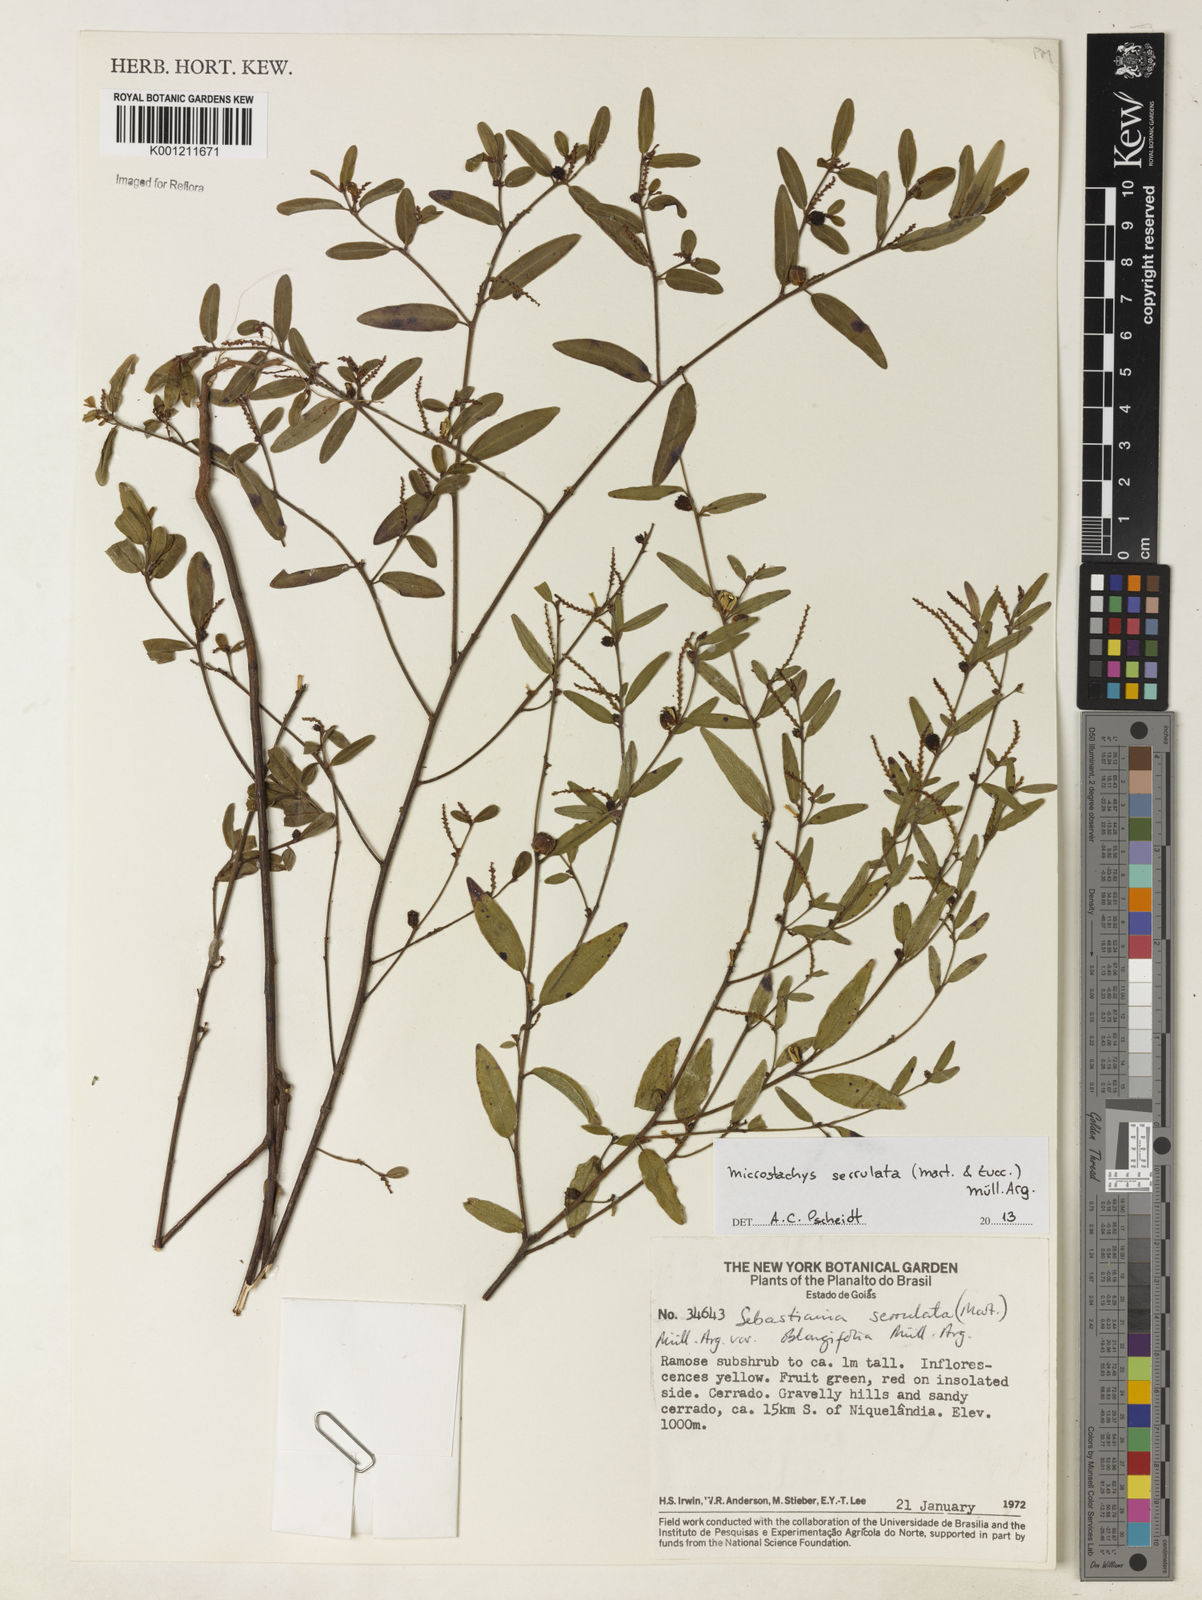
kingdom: Plantae
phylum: Tracheophyta
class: Magnoliopsida
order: Malpighiales
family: Euphorbiaceae
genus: Microstachys
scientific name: Microstachys
